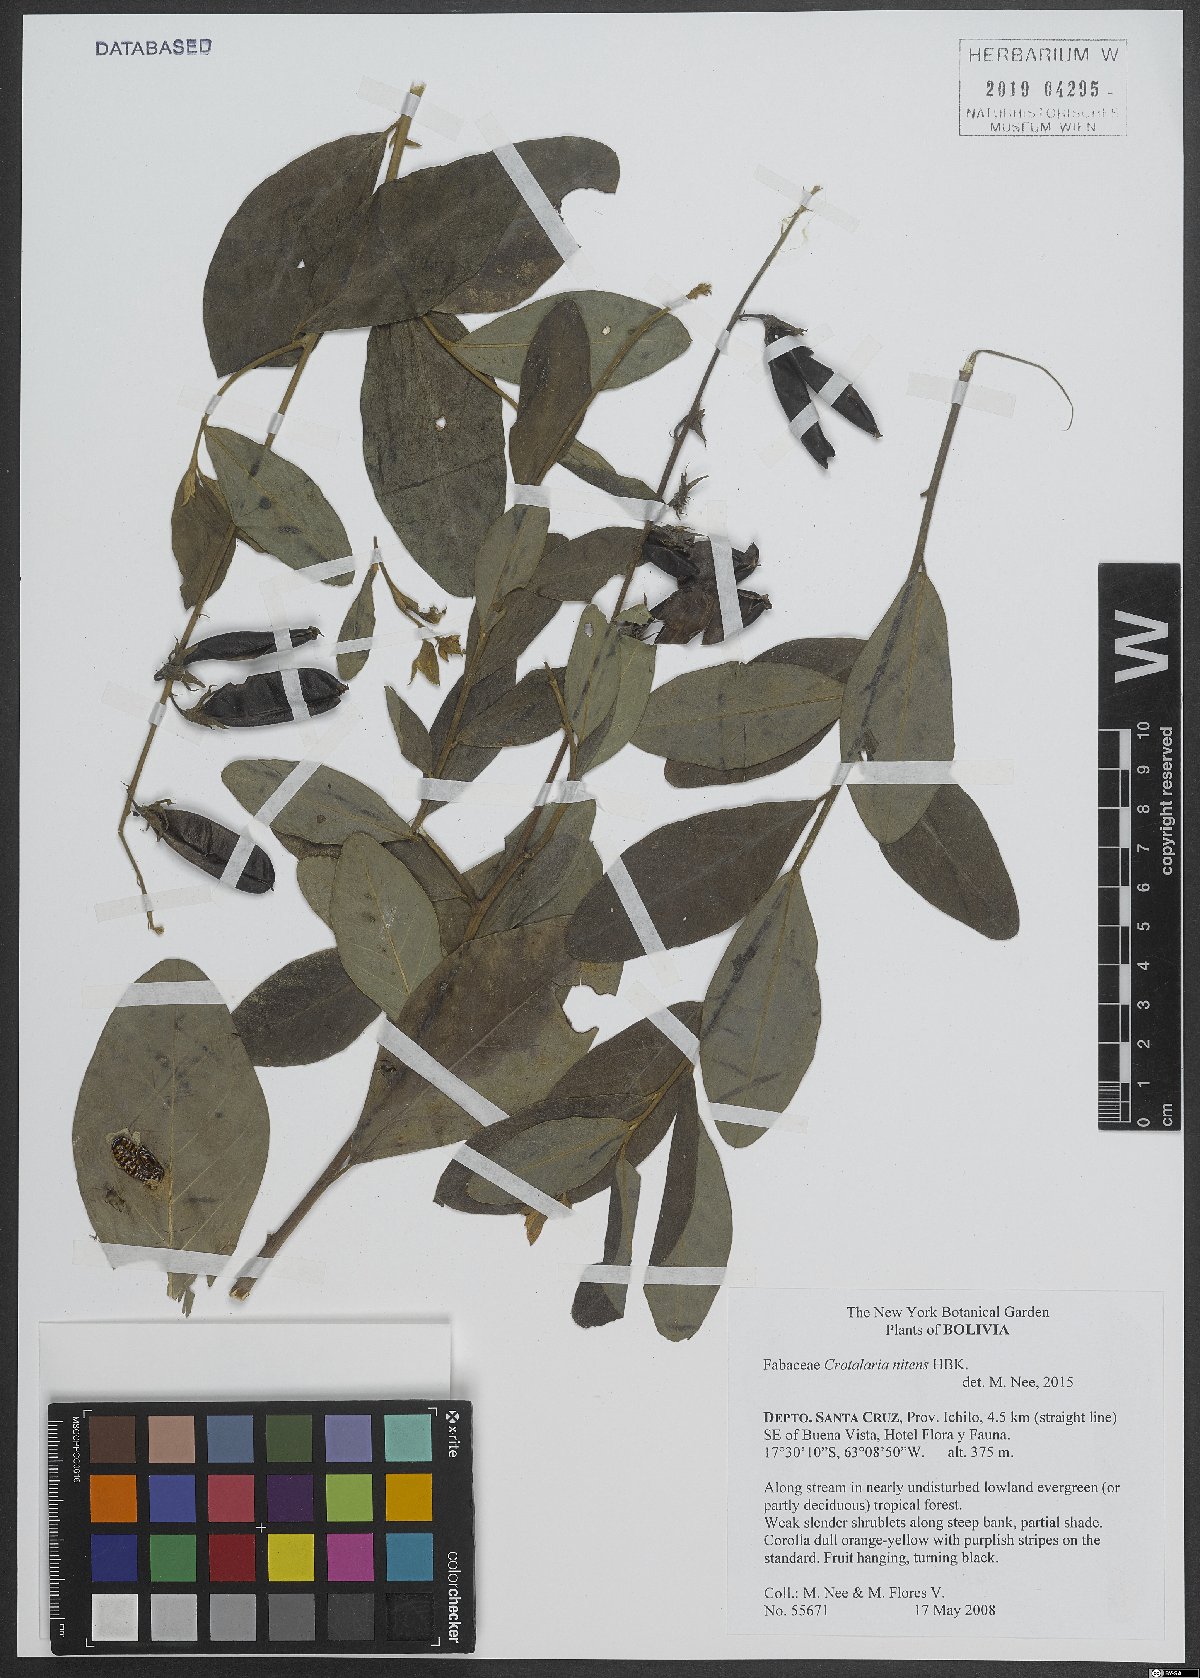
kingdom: Plantae
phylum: Tracheophyta
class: Magnoliopsida
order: Fabales
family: Fabaceae
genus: Crotalaria
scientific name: Crotalaria nitens
